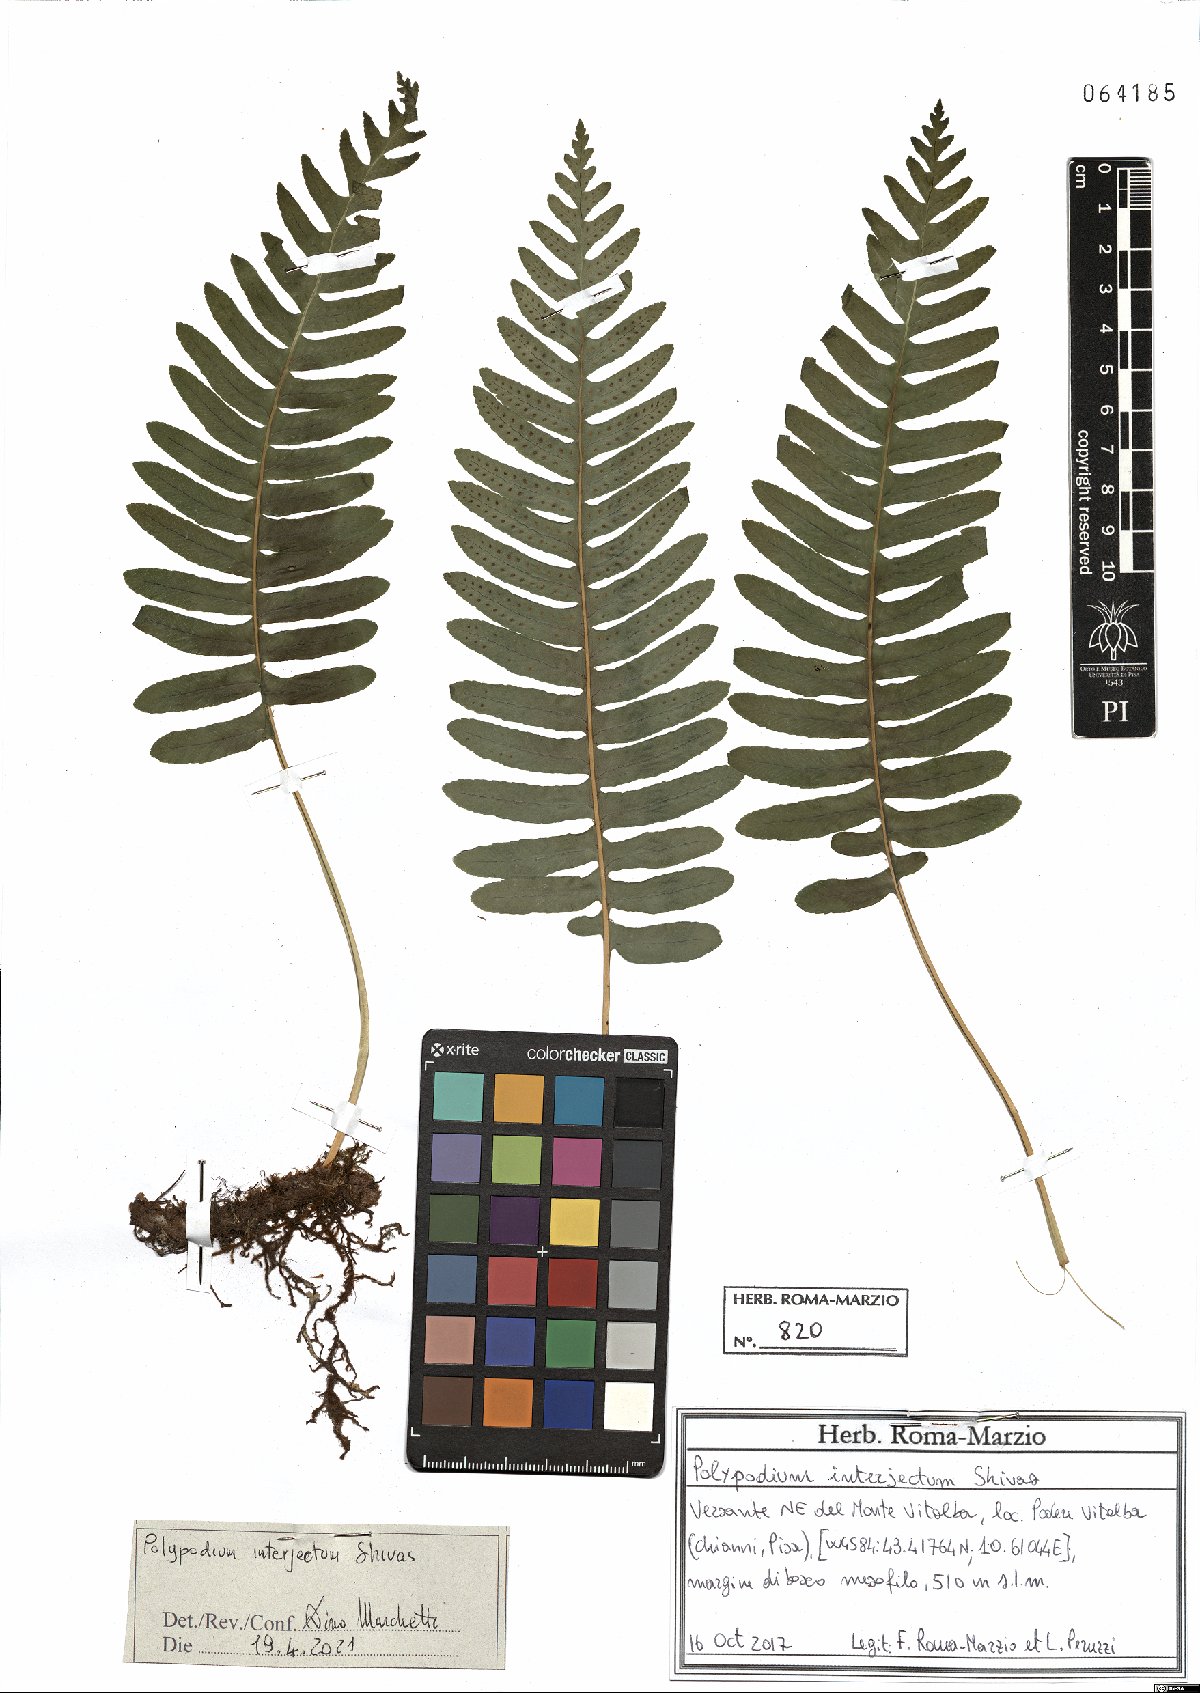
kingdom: Plantae
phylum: Tracheophyta
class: Polypodiopsida
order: Polypodiales
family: Polypodiaceae
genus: Polypodium
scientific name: Polypodium interjectum
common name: Intermediate polypody
